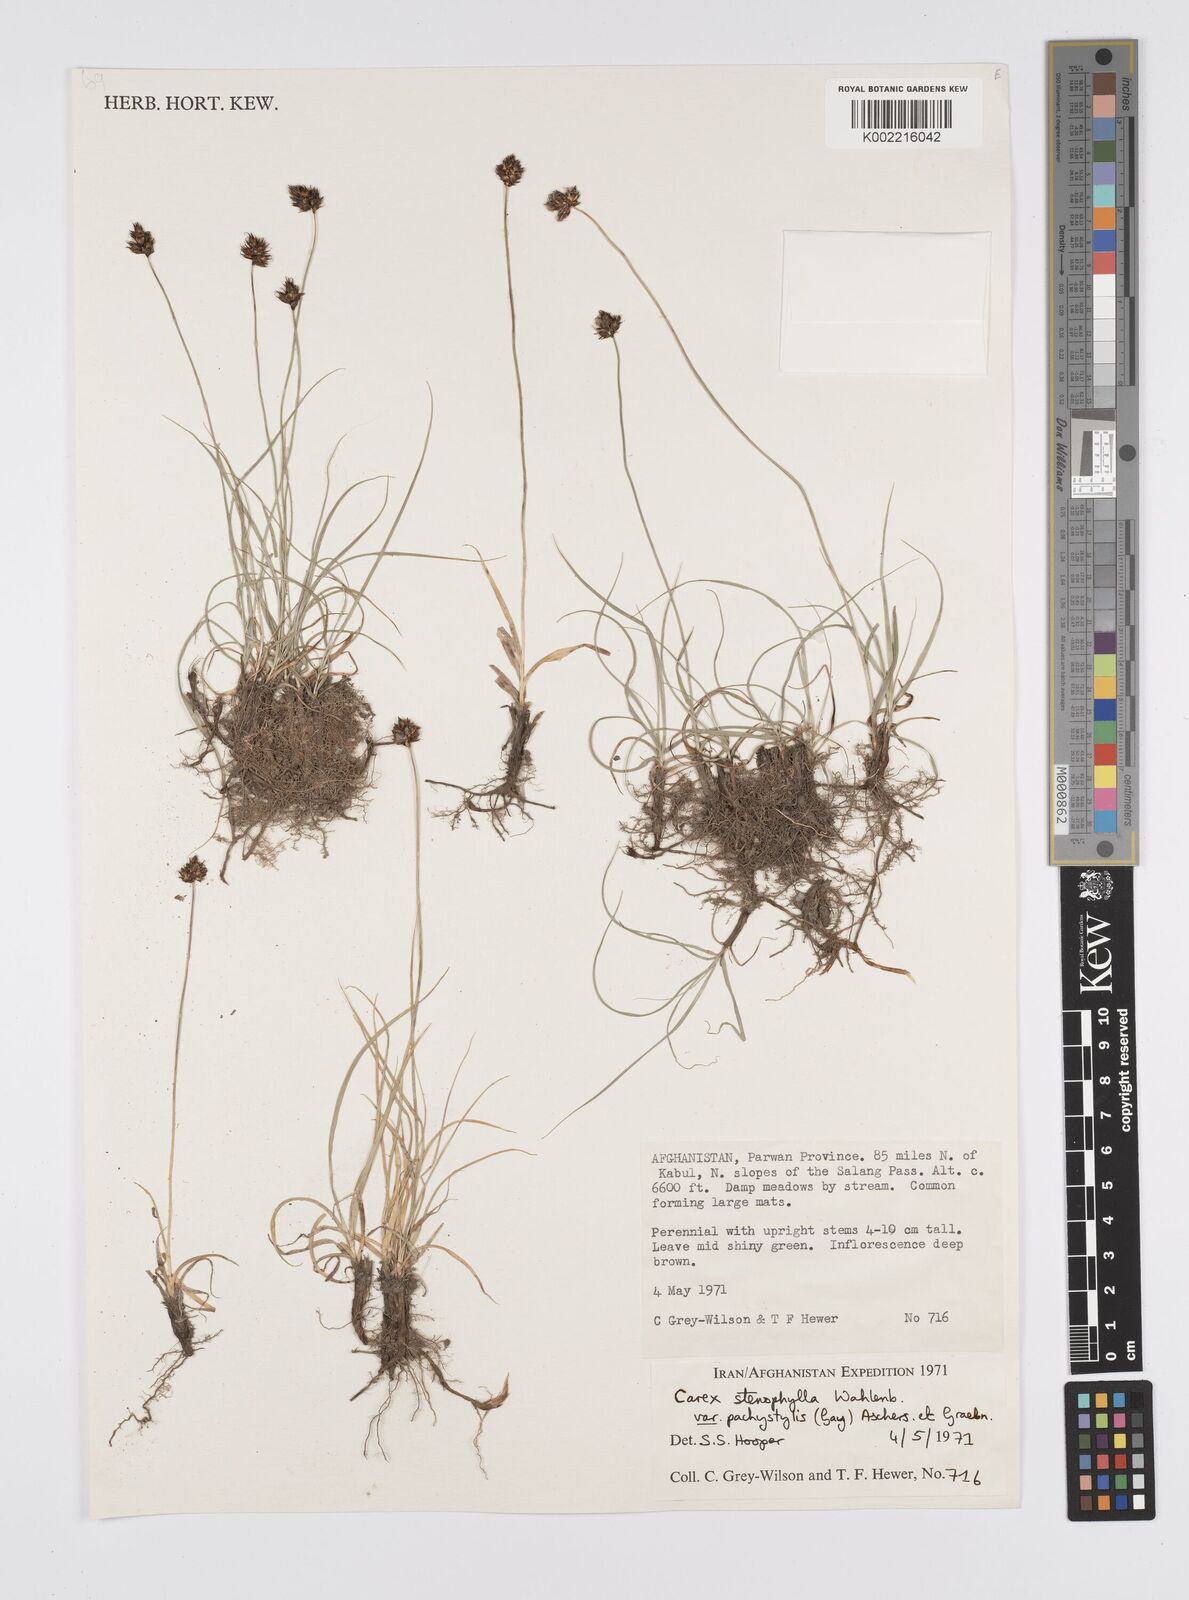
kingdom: Plantae
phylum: Tracheophyta
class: Liliopsida
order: Poales
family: Cyperaceae
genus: Carex
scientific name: Carex pachystylis
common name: Thick-stem sedge
